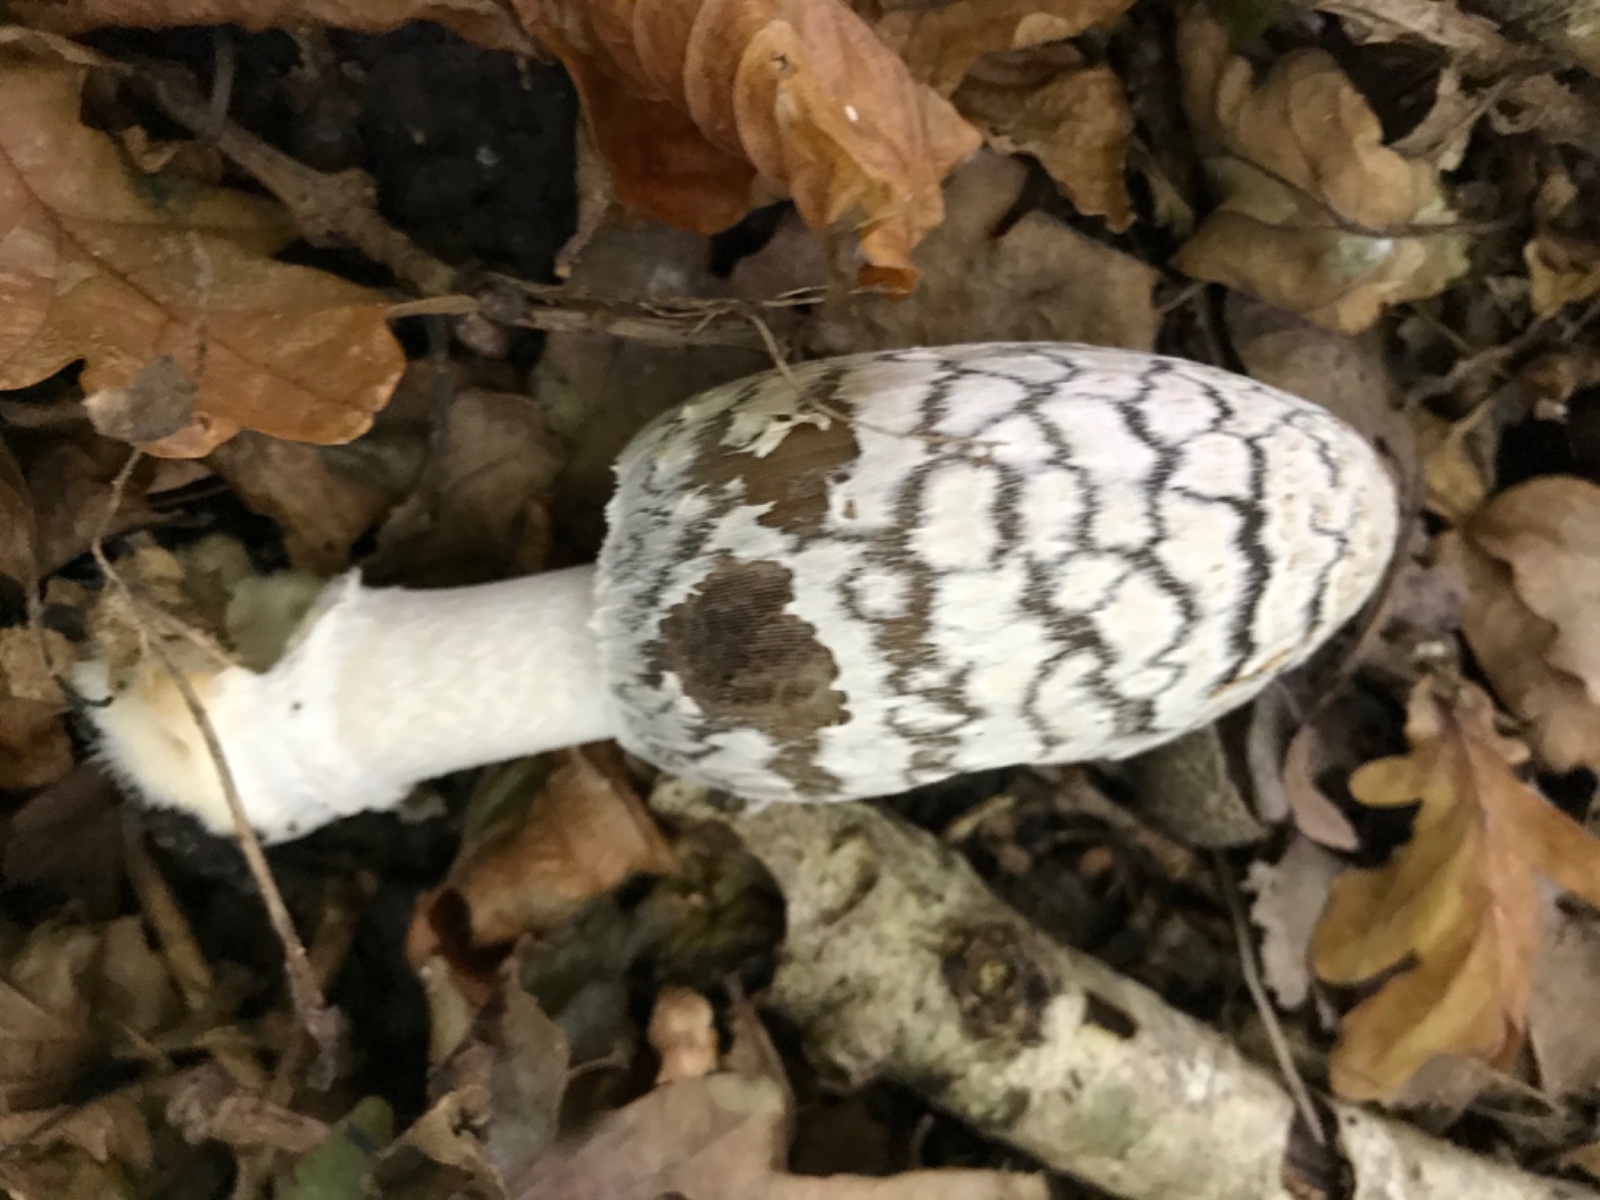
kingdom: Fungi
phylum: Basidiomycota
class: Agaricomycetes
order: Agaricales
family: Psathyrellaceae
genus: Coprinopsis
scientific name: Coprinopsis picacea
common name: skade-blækhat
